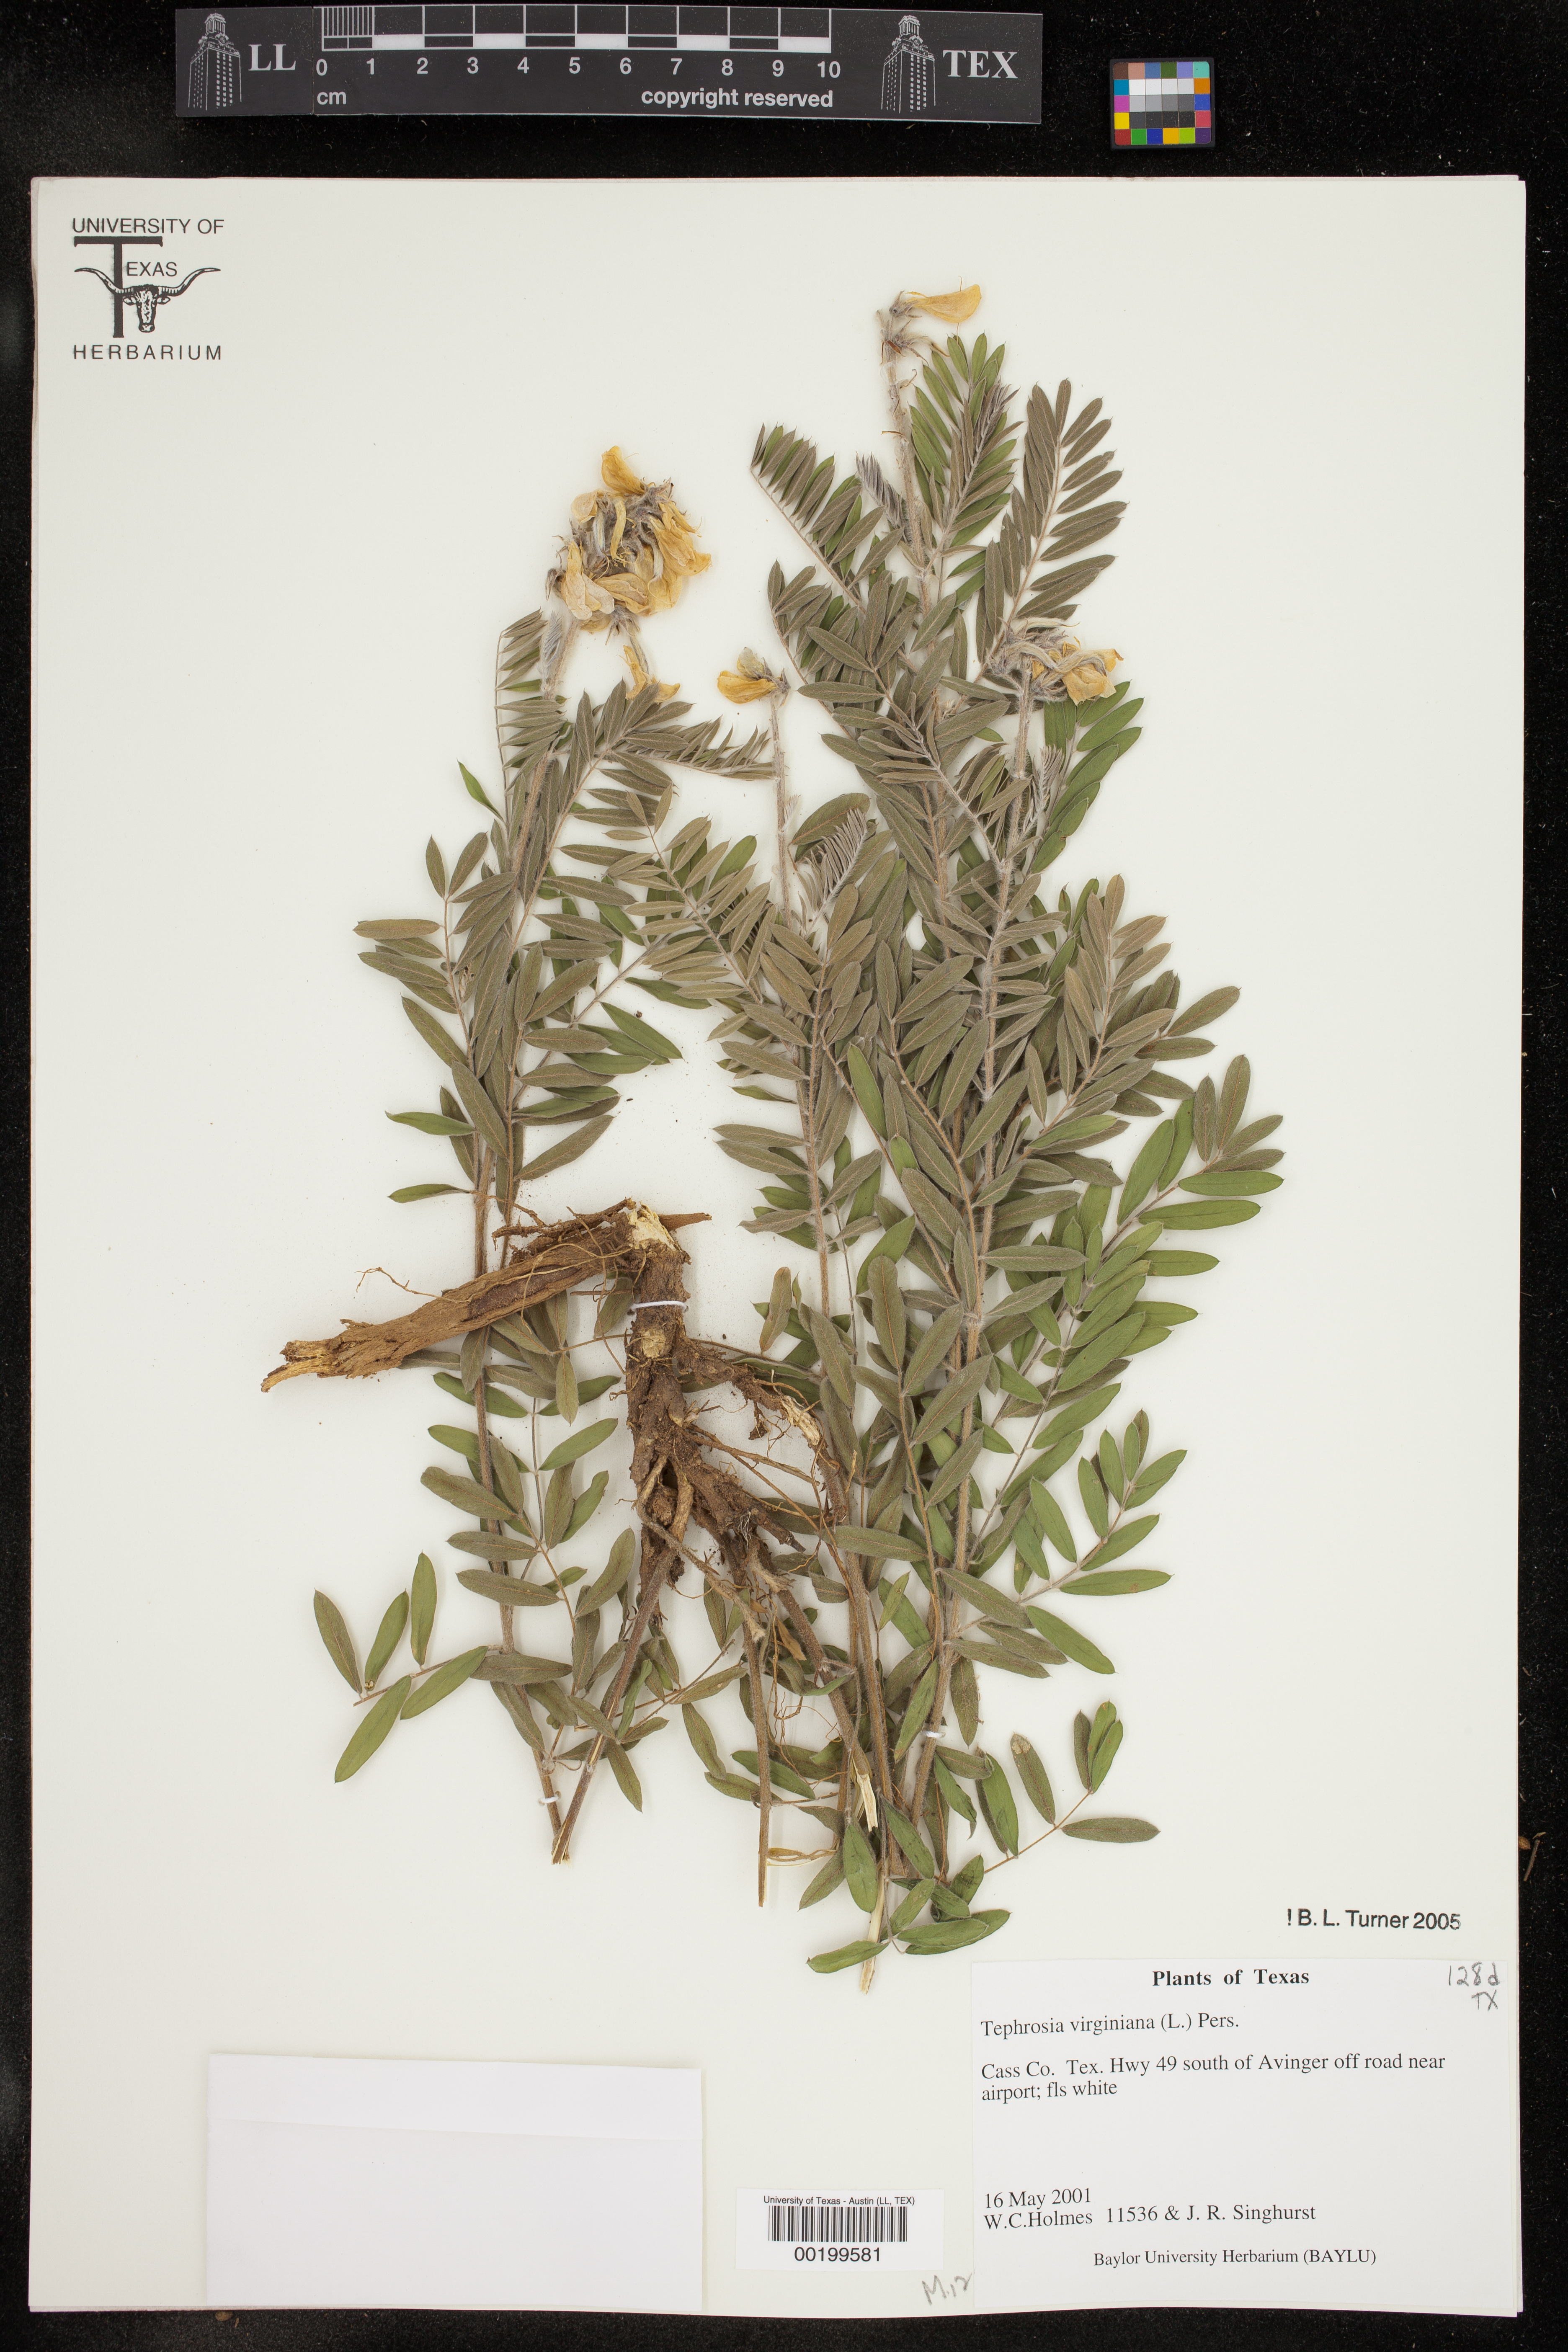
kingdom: Plantae
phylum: Tracheophyta
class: Magnoliopsida
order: Fabales
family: Fabaceae
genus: Tephrosia
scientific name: Tephrosia virginiana
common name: Rabbit-pea
